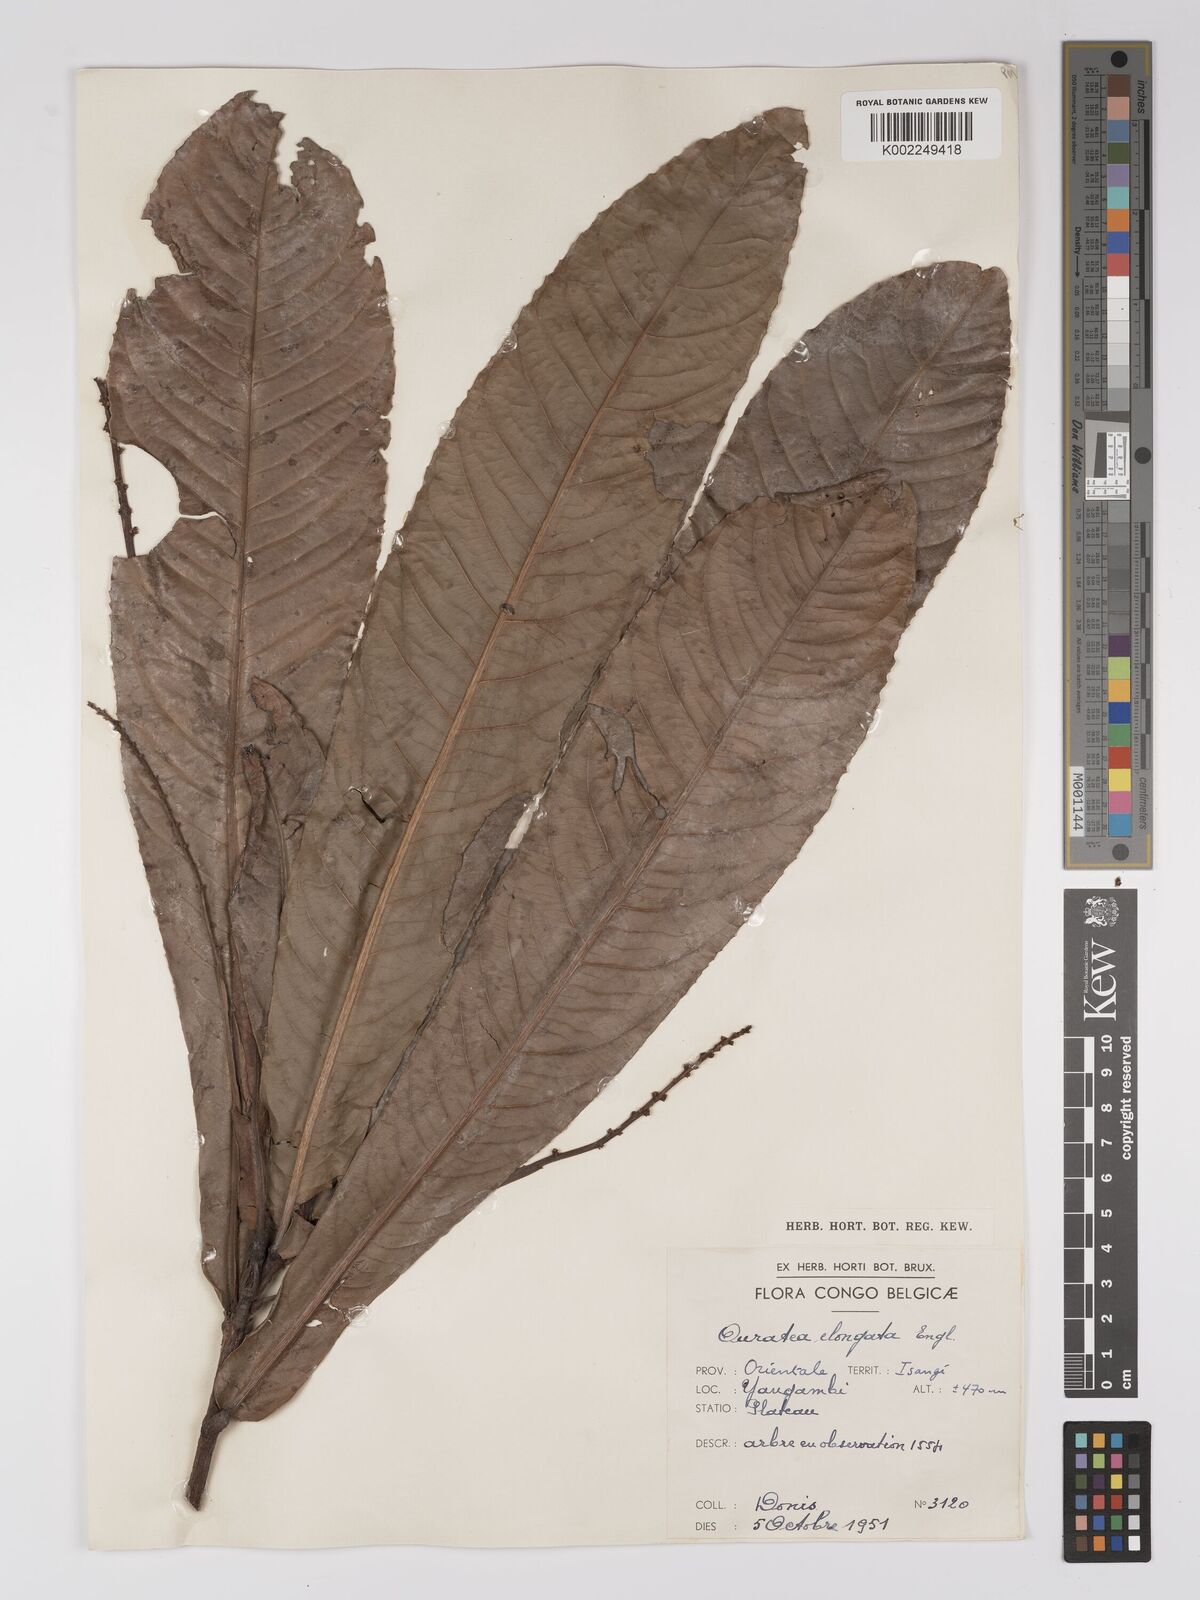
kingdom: Plantae
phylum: Tracheophyta
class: Magnoliopsida
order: Malpighiales
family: Ochnaceae
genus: Gomphia
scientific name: Gomphia elongata
